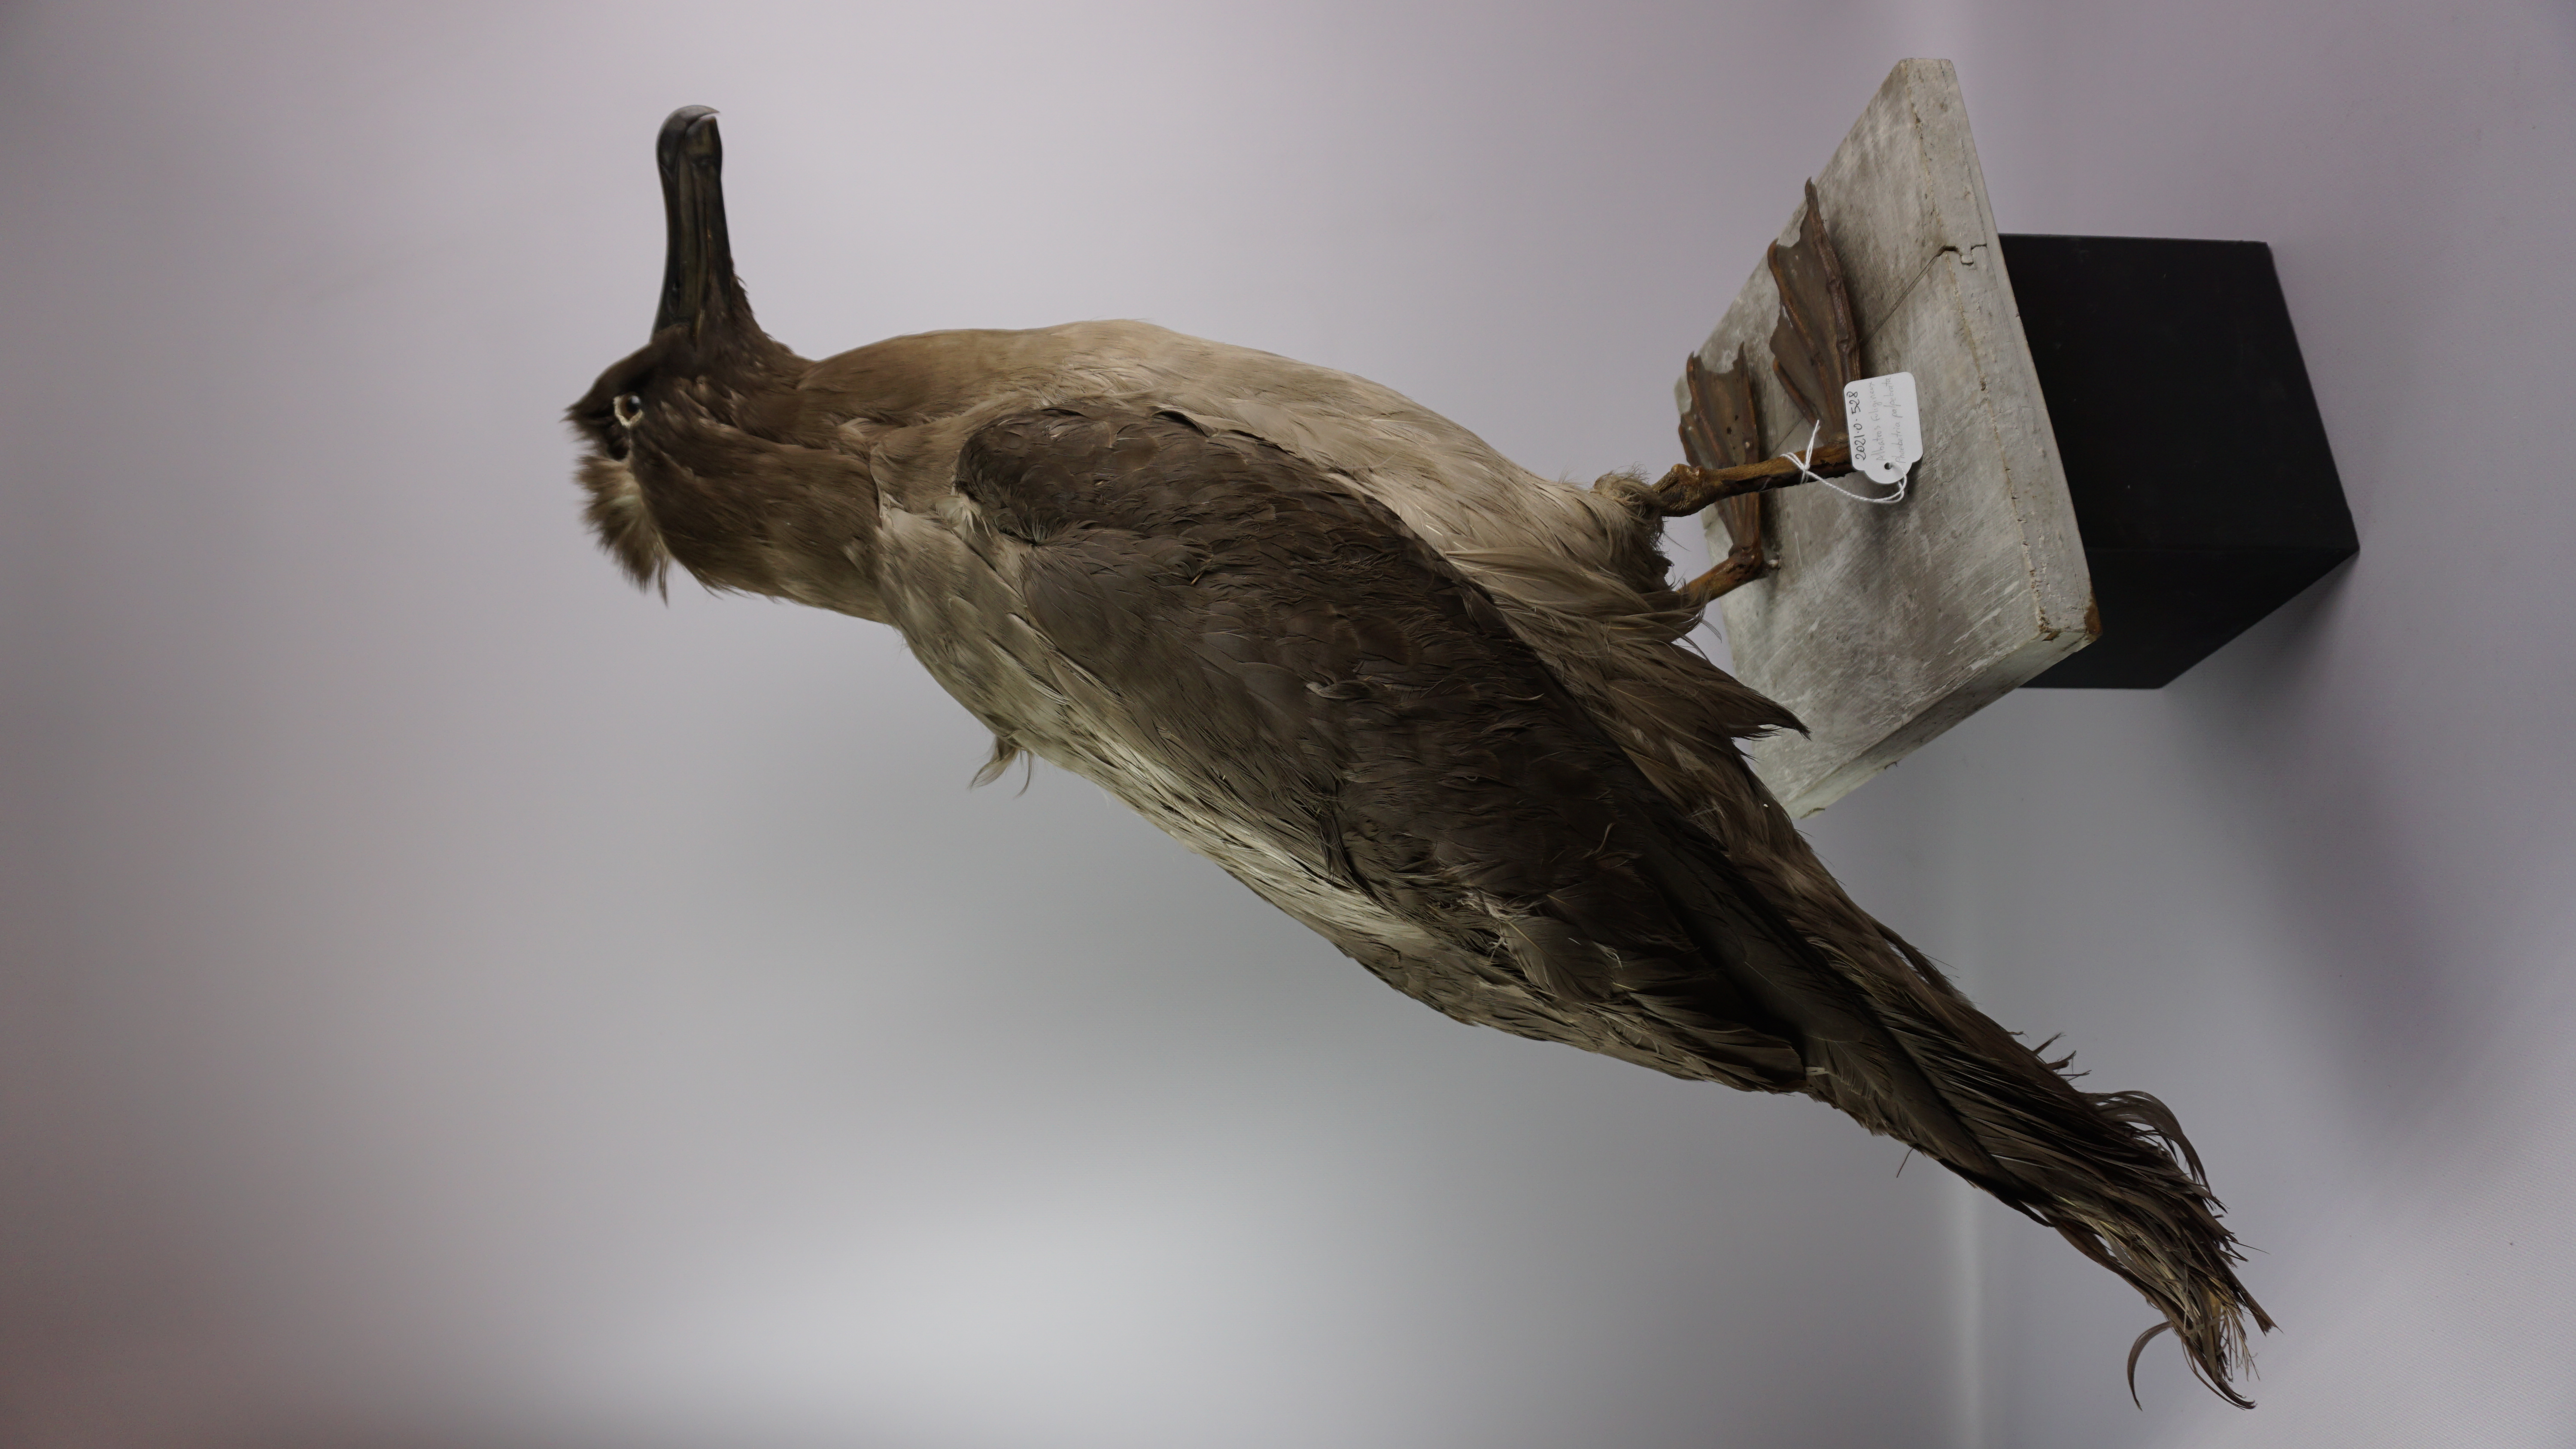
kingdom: Animalia
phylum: Chordata
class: Aves
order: Procellariiformes
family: Diomedeidae
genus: Phoebetria
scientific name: Phoebetria palpebrata
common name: Light-mantled albatross
